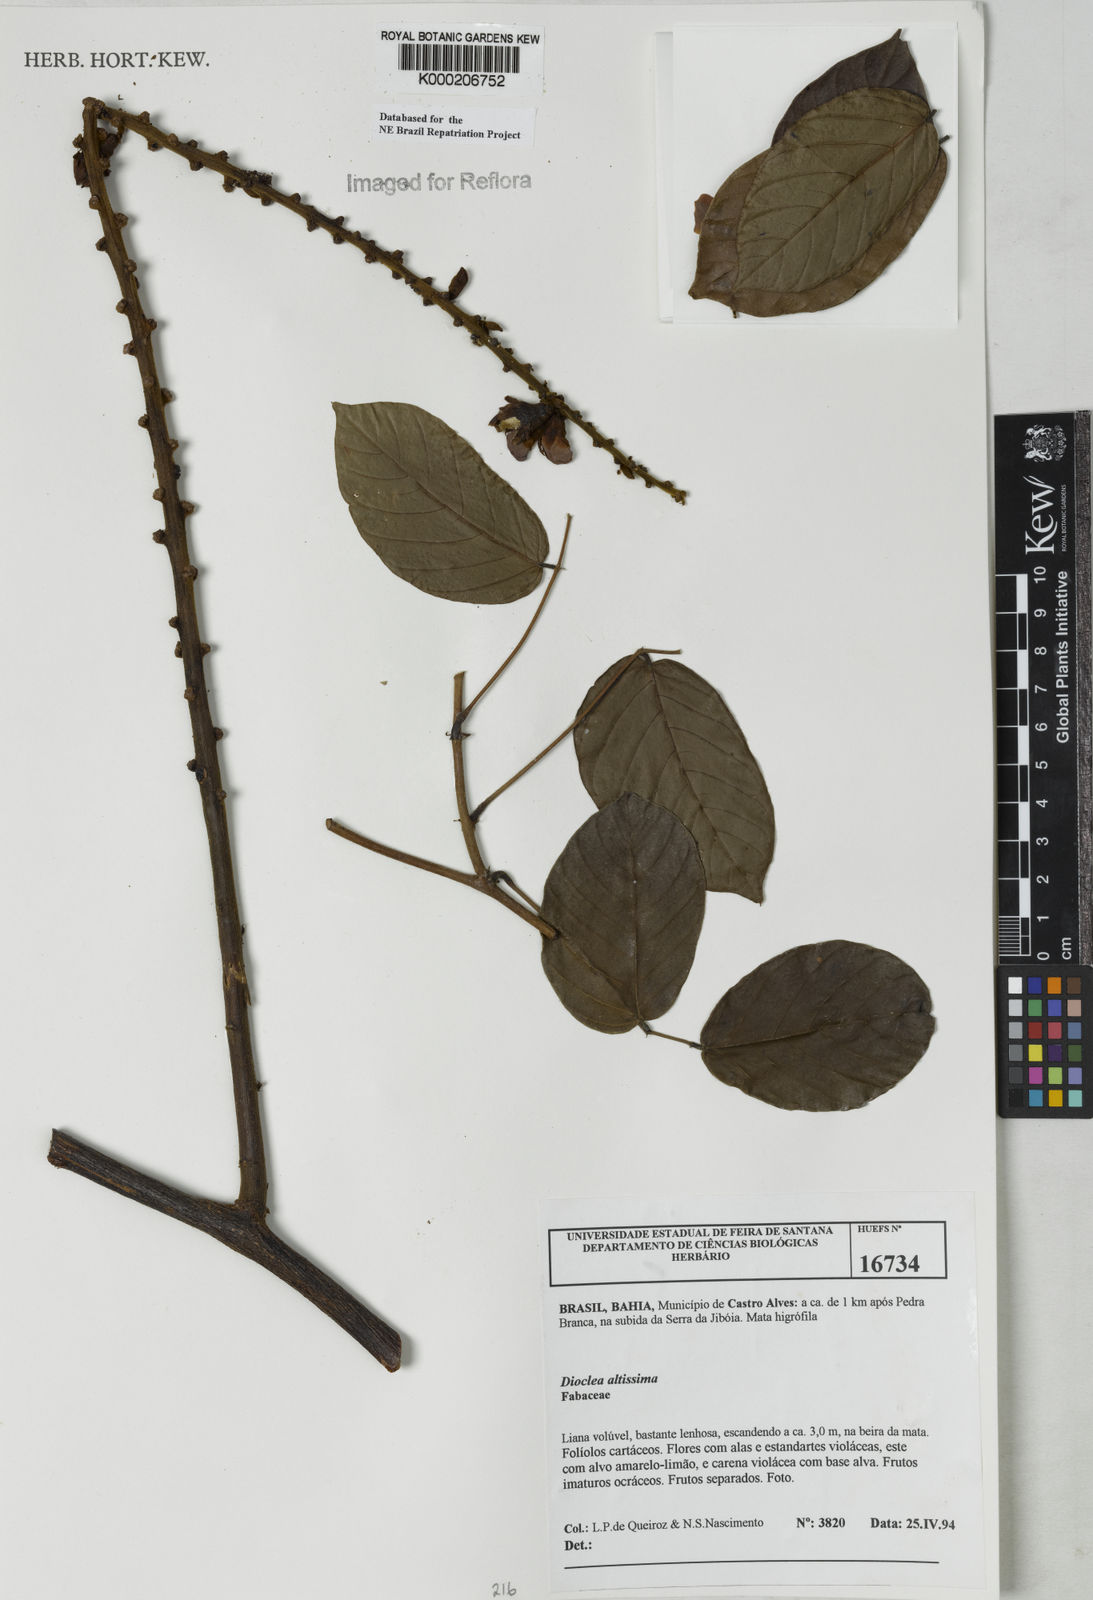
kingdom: Plantae
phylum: Tracheophyta
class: Magnoliopsida
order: Fabales
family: Fabaceae
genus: Macropsychanthus
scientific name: Macropsychanthus glaber
